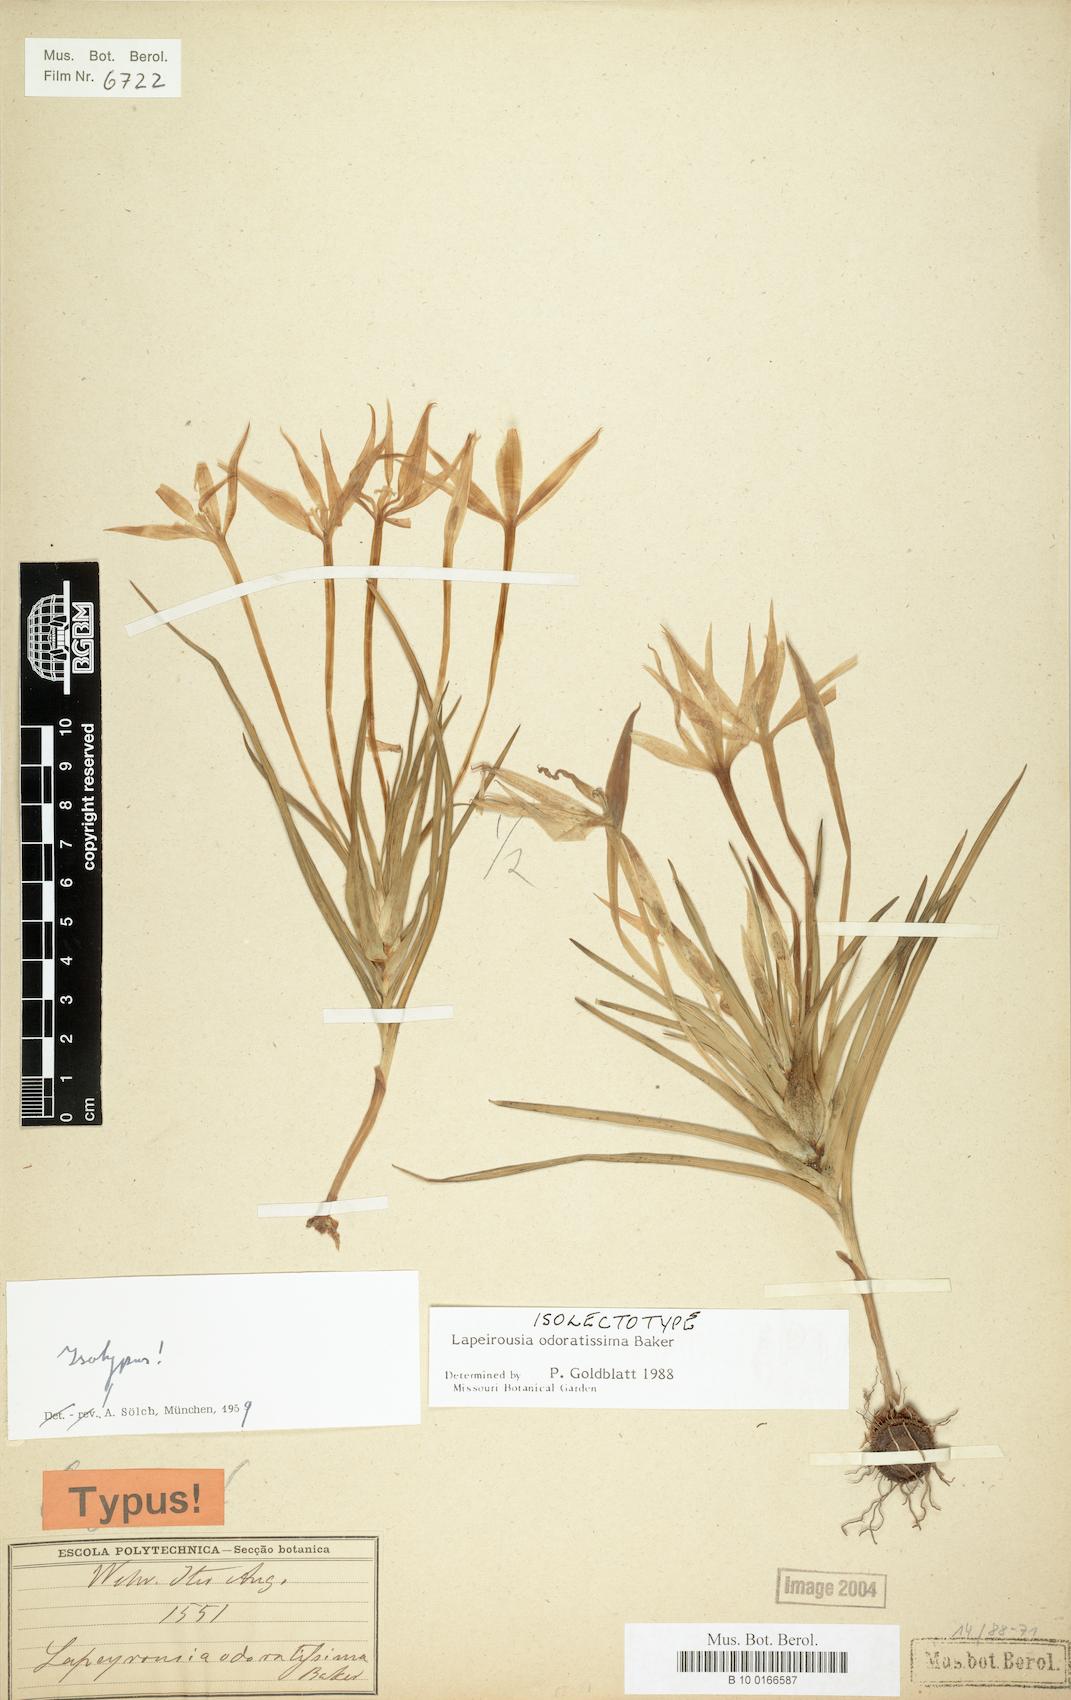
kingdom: Plantae
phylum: Tracheophyta
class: Liliopsida
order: Asparagales
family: Iridaceae
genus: Lapeirousia
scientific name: Lapeirousia odoratissima
